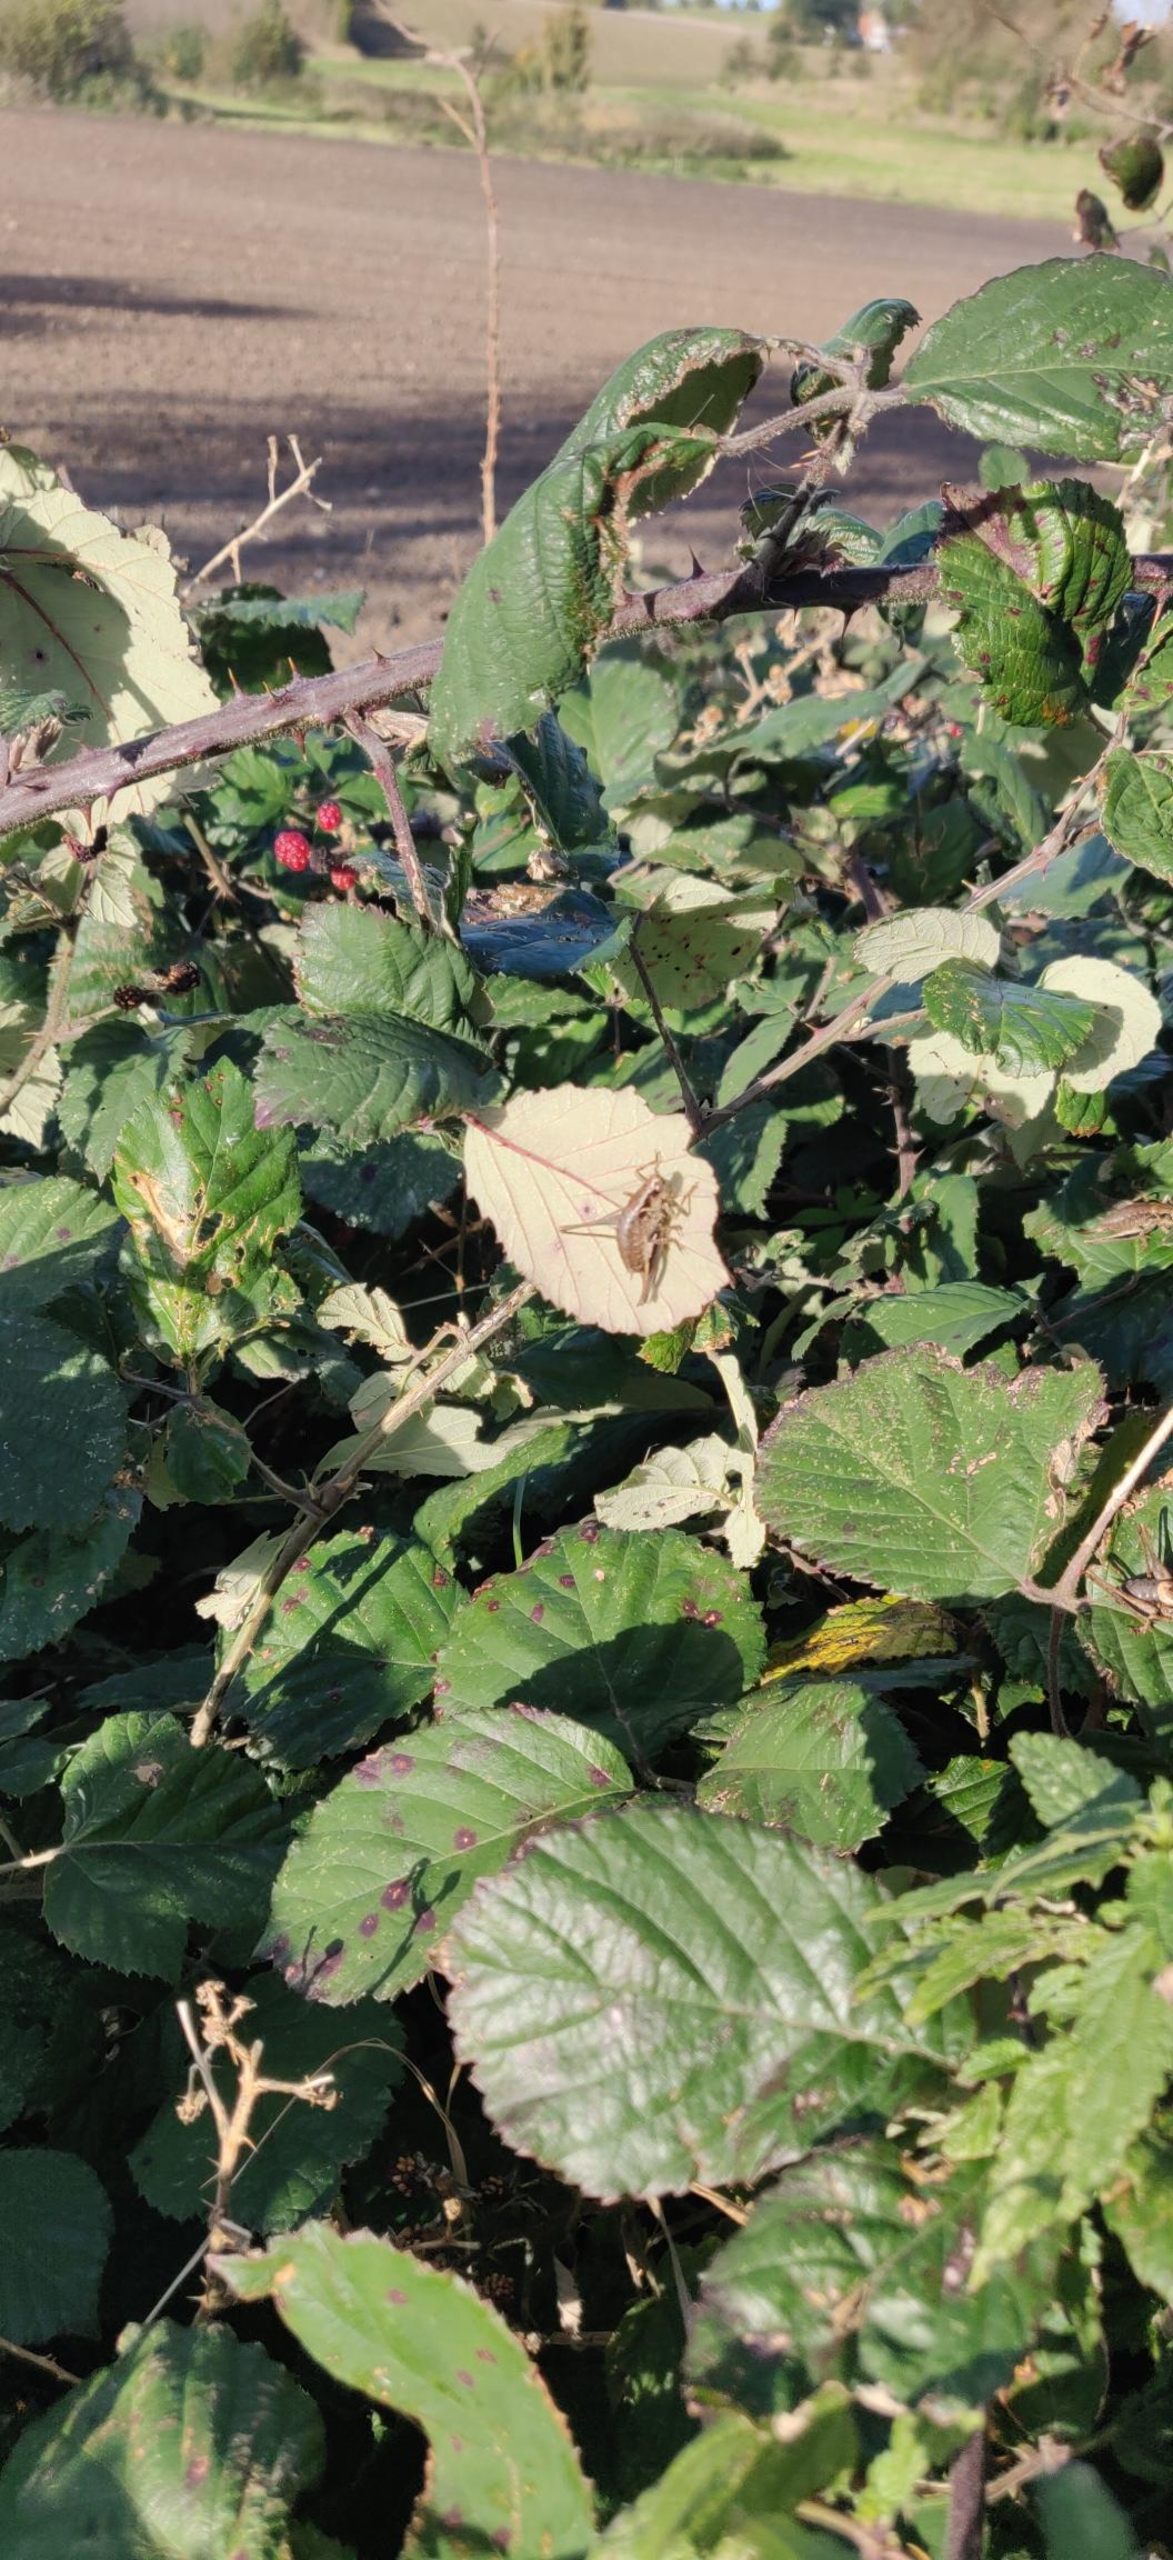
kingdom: Animalia
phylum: Arthropoda
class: Insecta
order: Orthoptera
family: Tettigoniidae
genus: Pholidoptera
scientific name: Pholidoptera griseoaptera
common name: Buskgræshoppe
